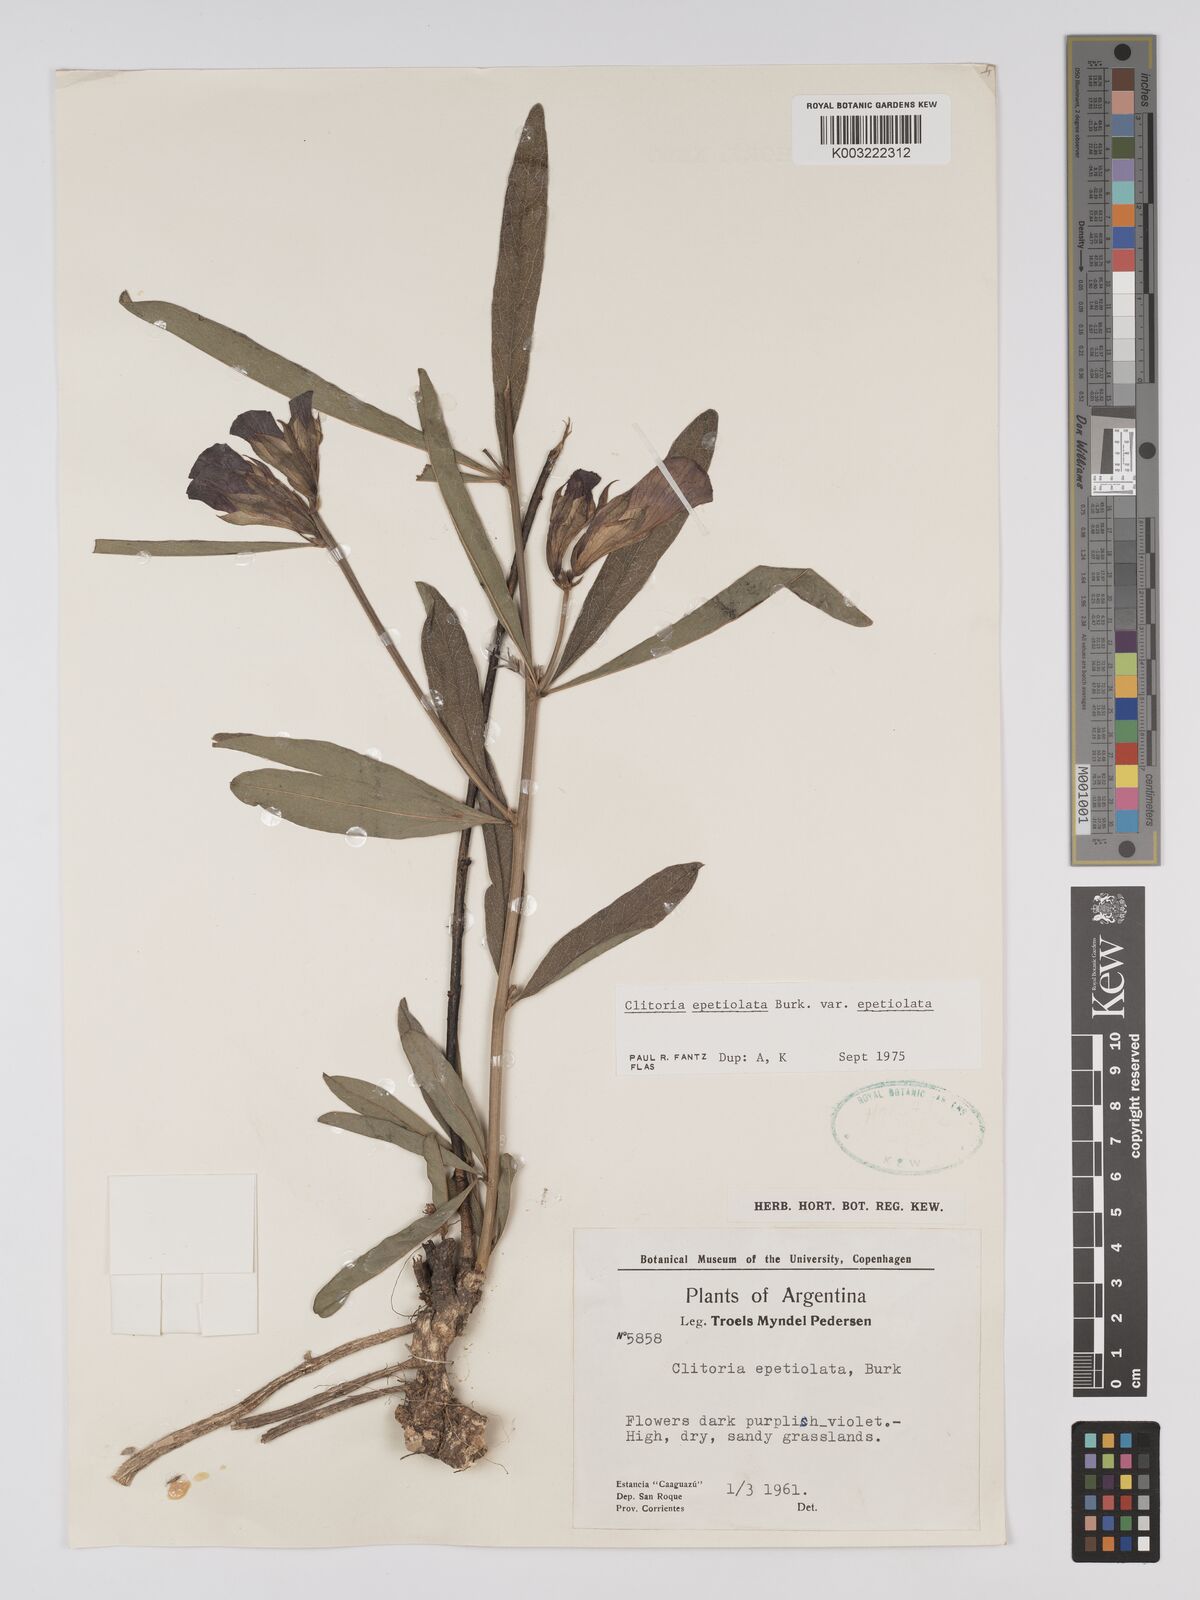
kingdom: Plantae
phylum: Tracheophyta
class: Magnoliopsida
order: Fabales
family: Fabaceae
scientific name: Fabaceae
